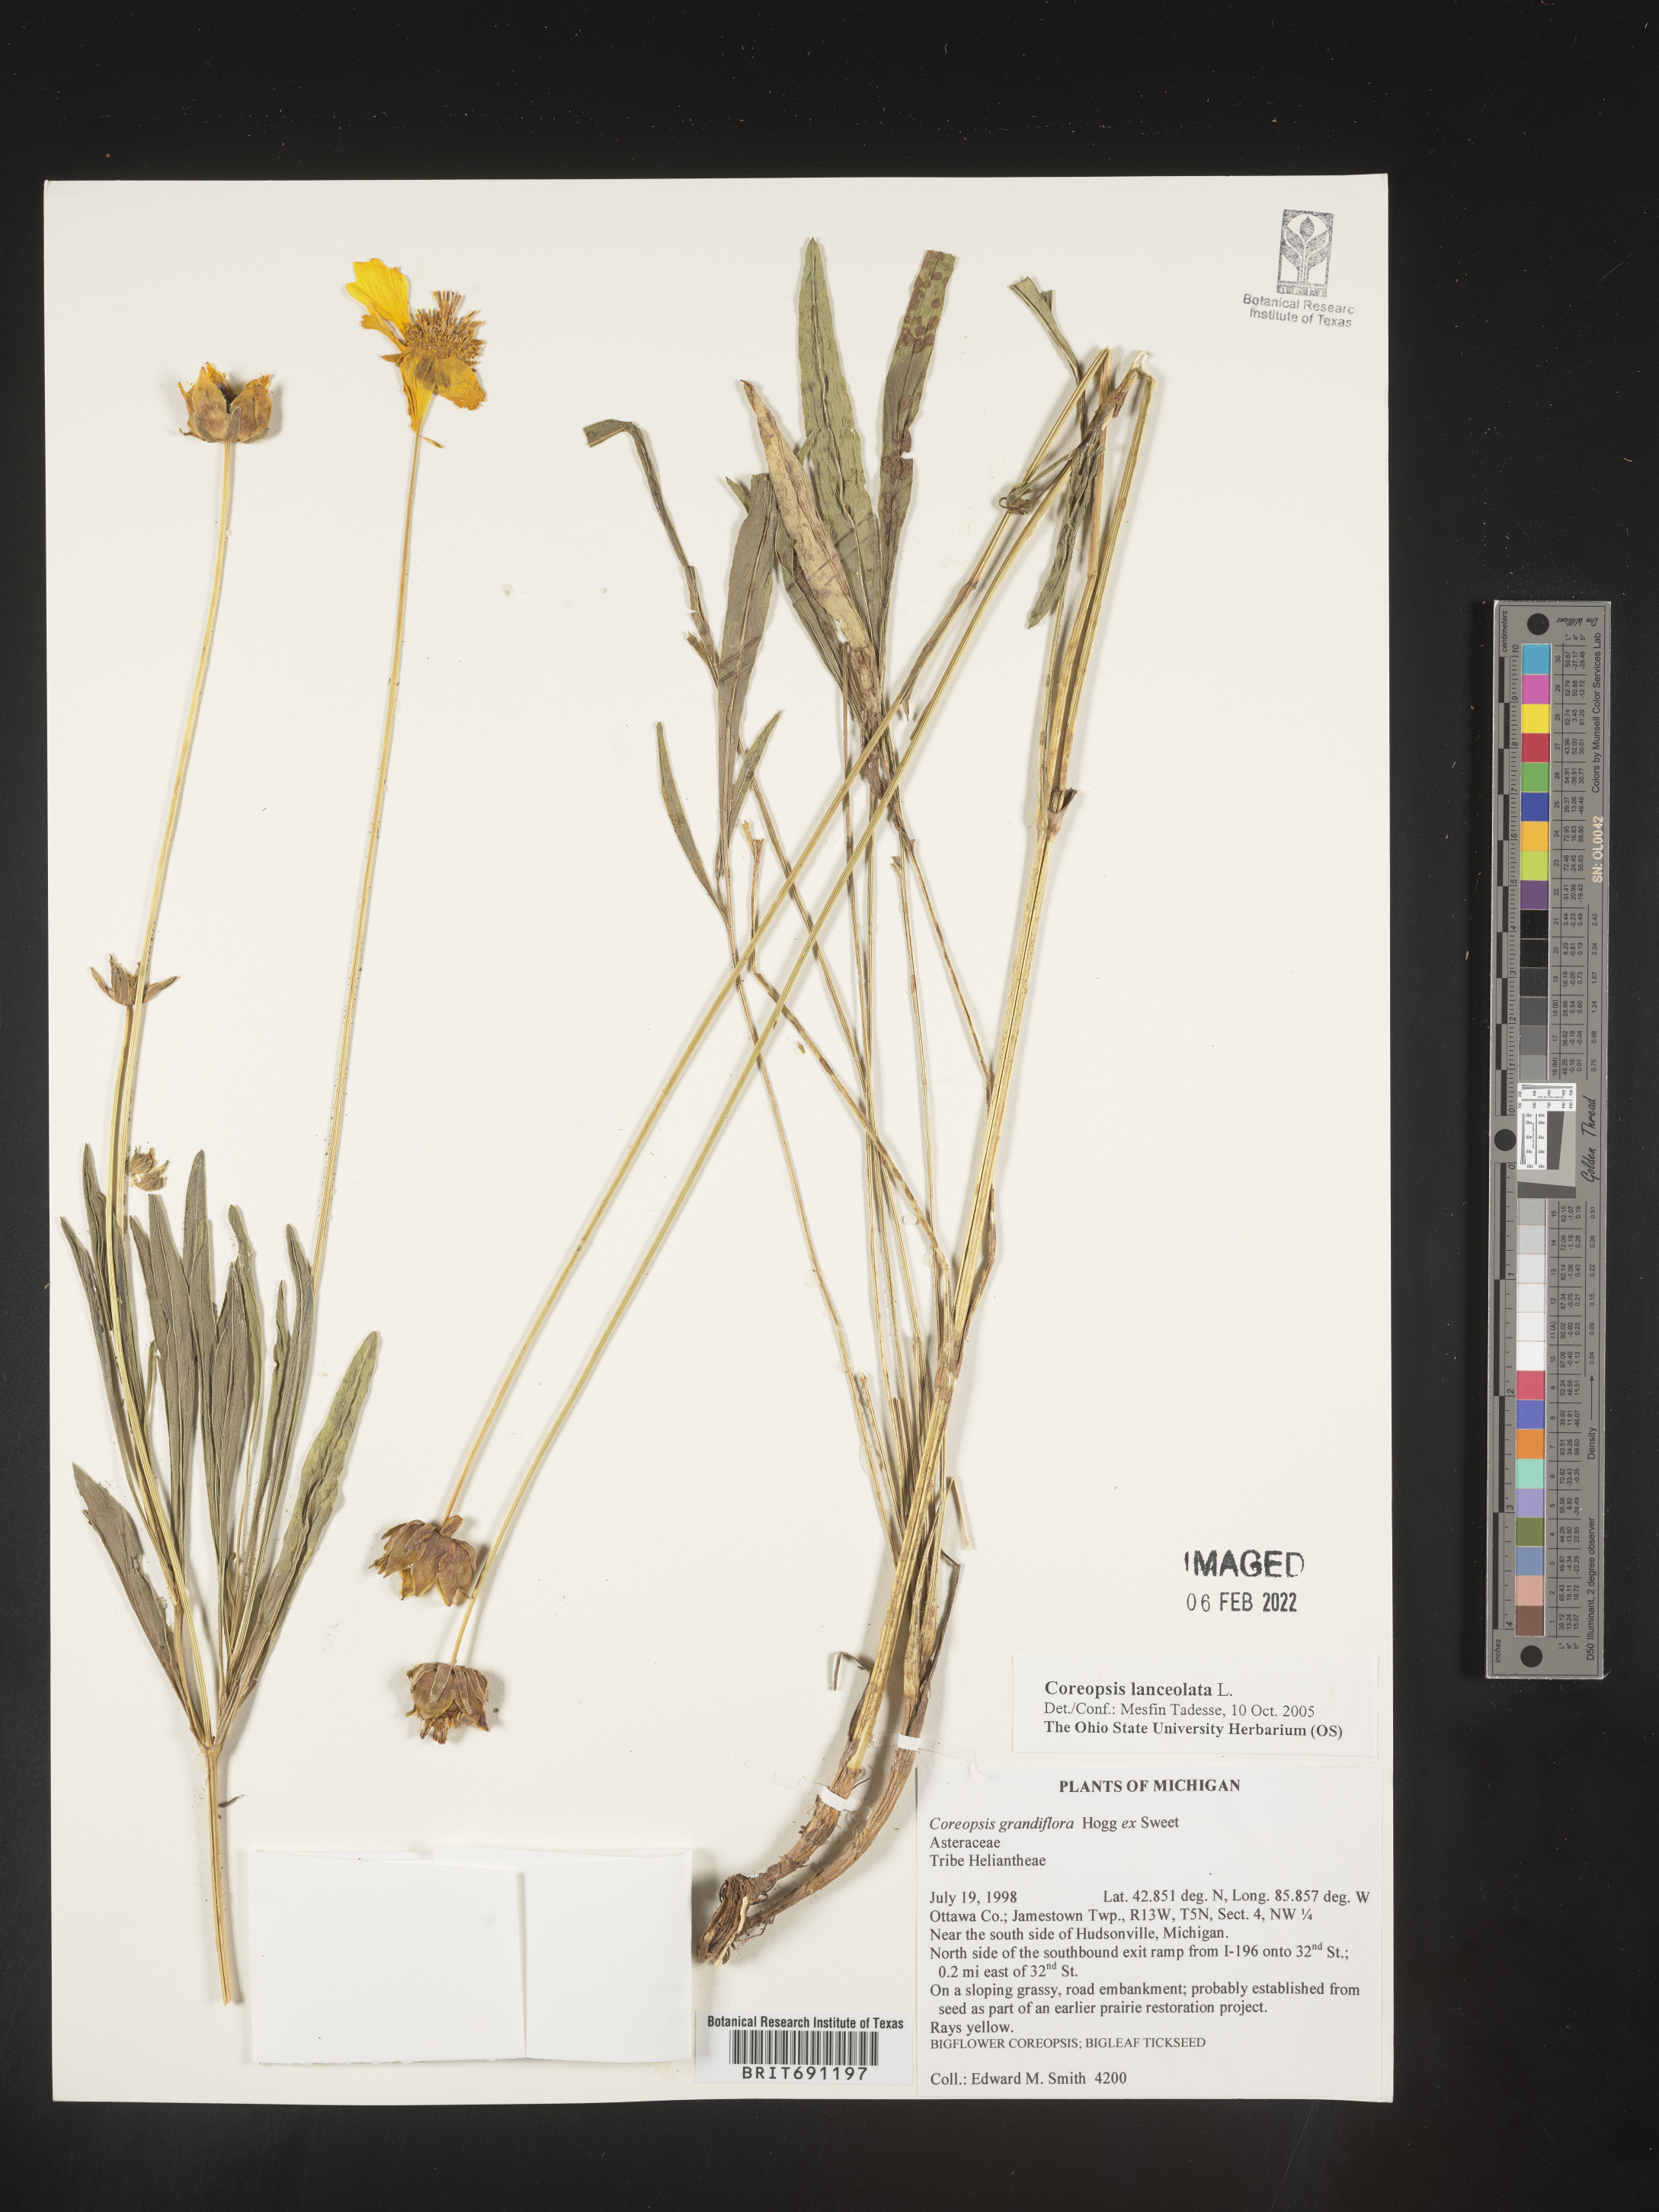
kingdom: Plantae
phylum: Tracheophyta
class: Magnoliopsida
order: Asterales
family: Asteraceae
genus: Coreopsis
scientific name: Coreopsis lanceolata
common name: Garden coreopsis
